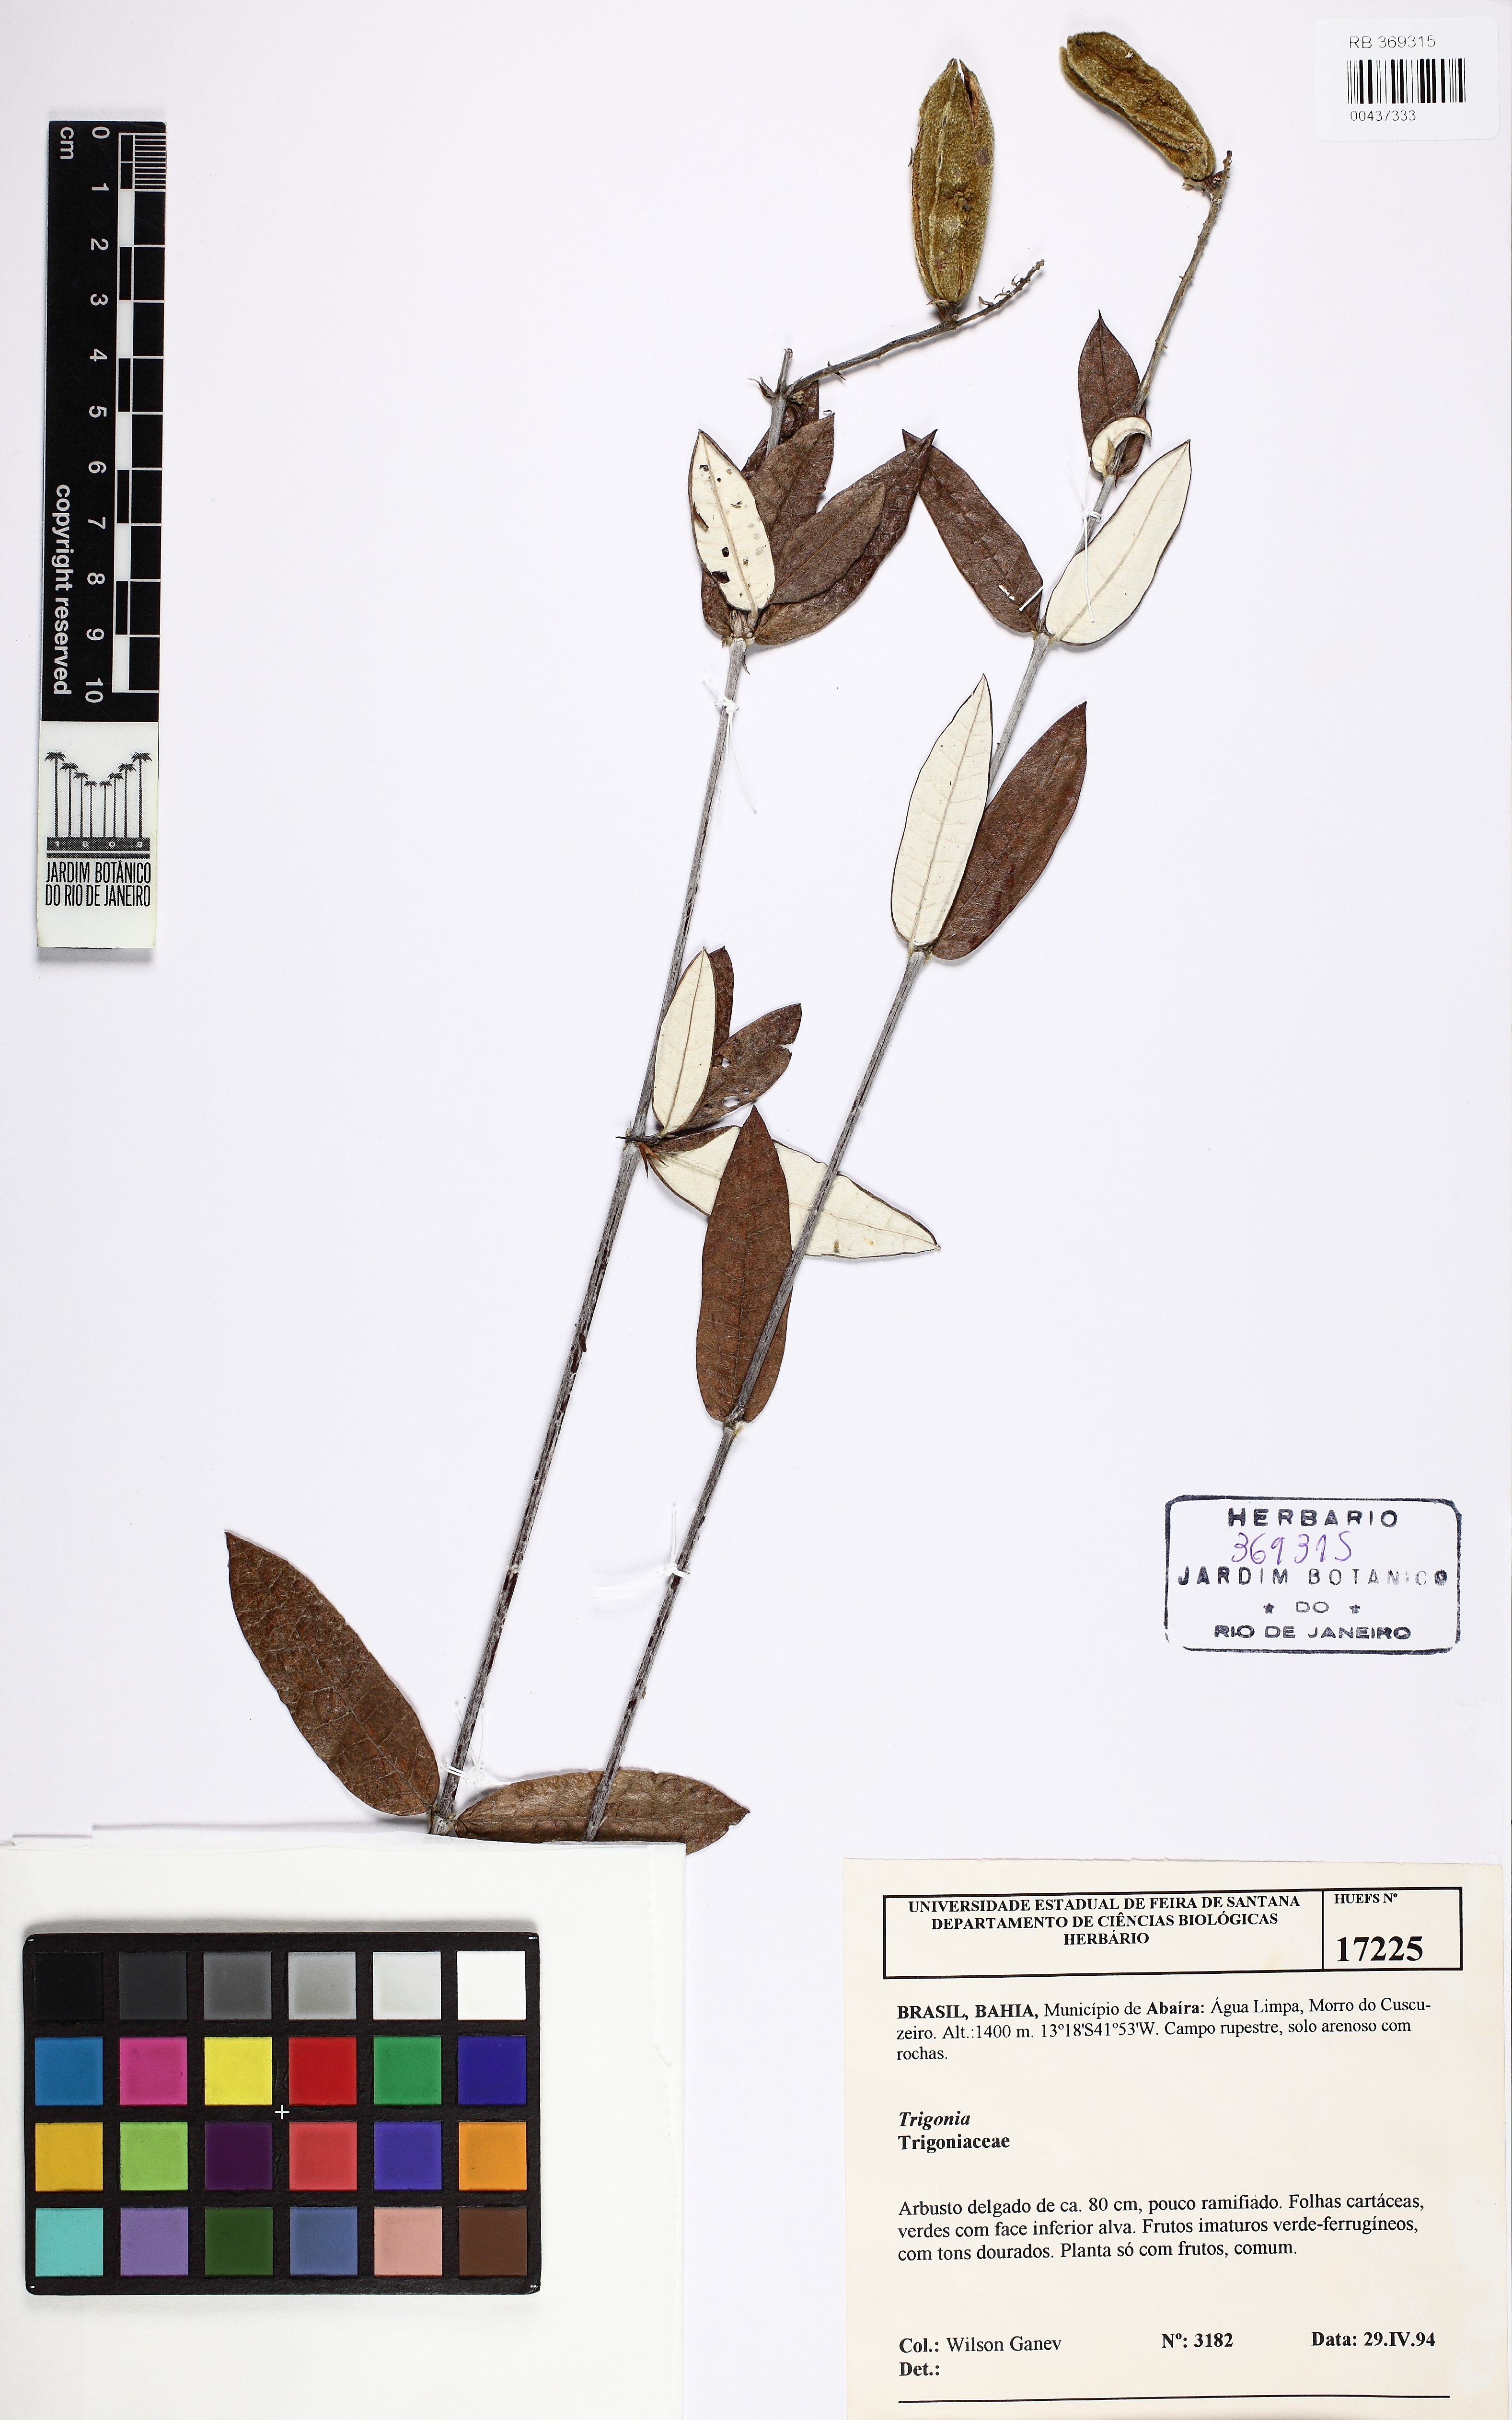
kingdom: Plantae
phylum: Tracheophyta
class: Magnoliopsida
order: Malpighiales
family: Trigoniaceae
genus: Trigonia
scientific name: Trigonia
